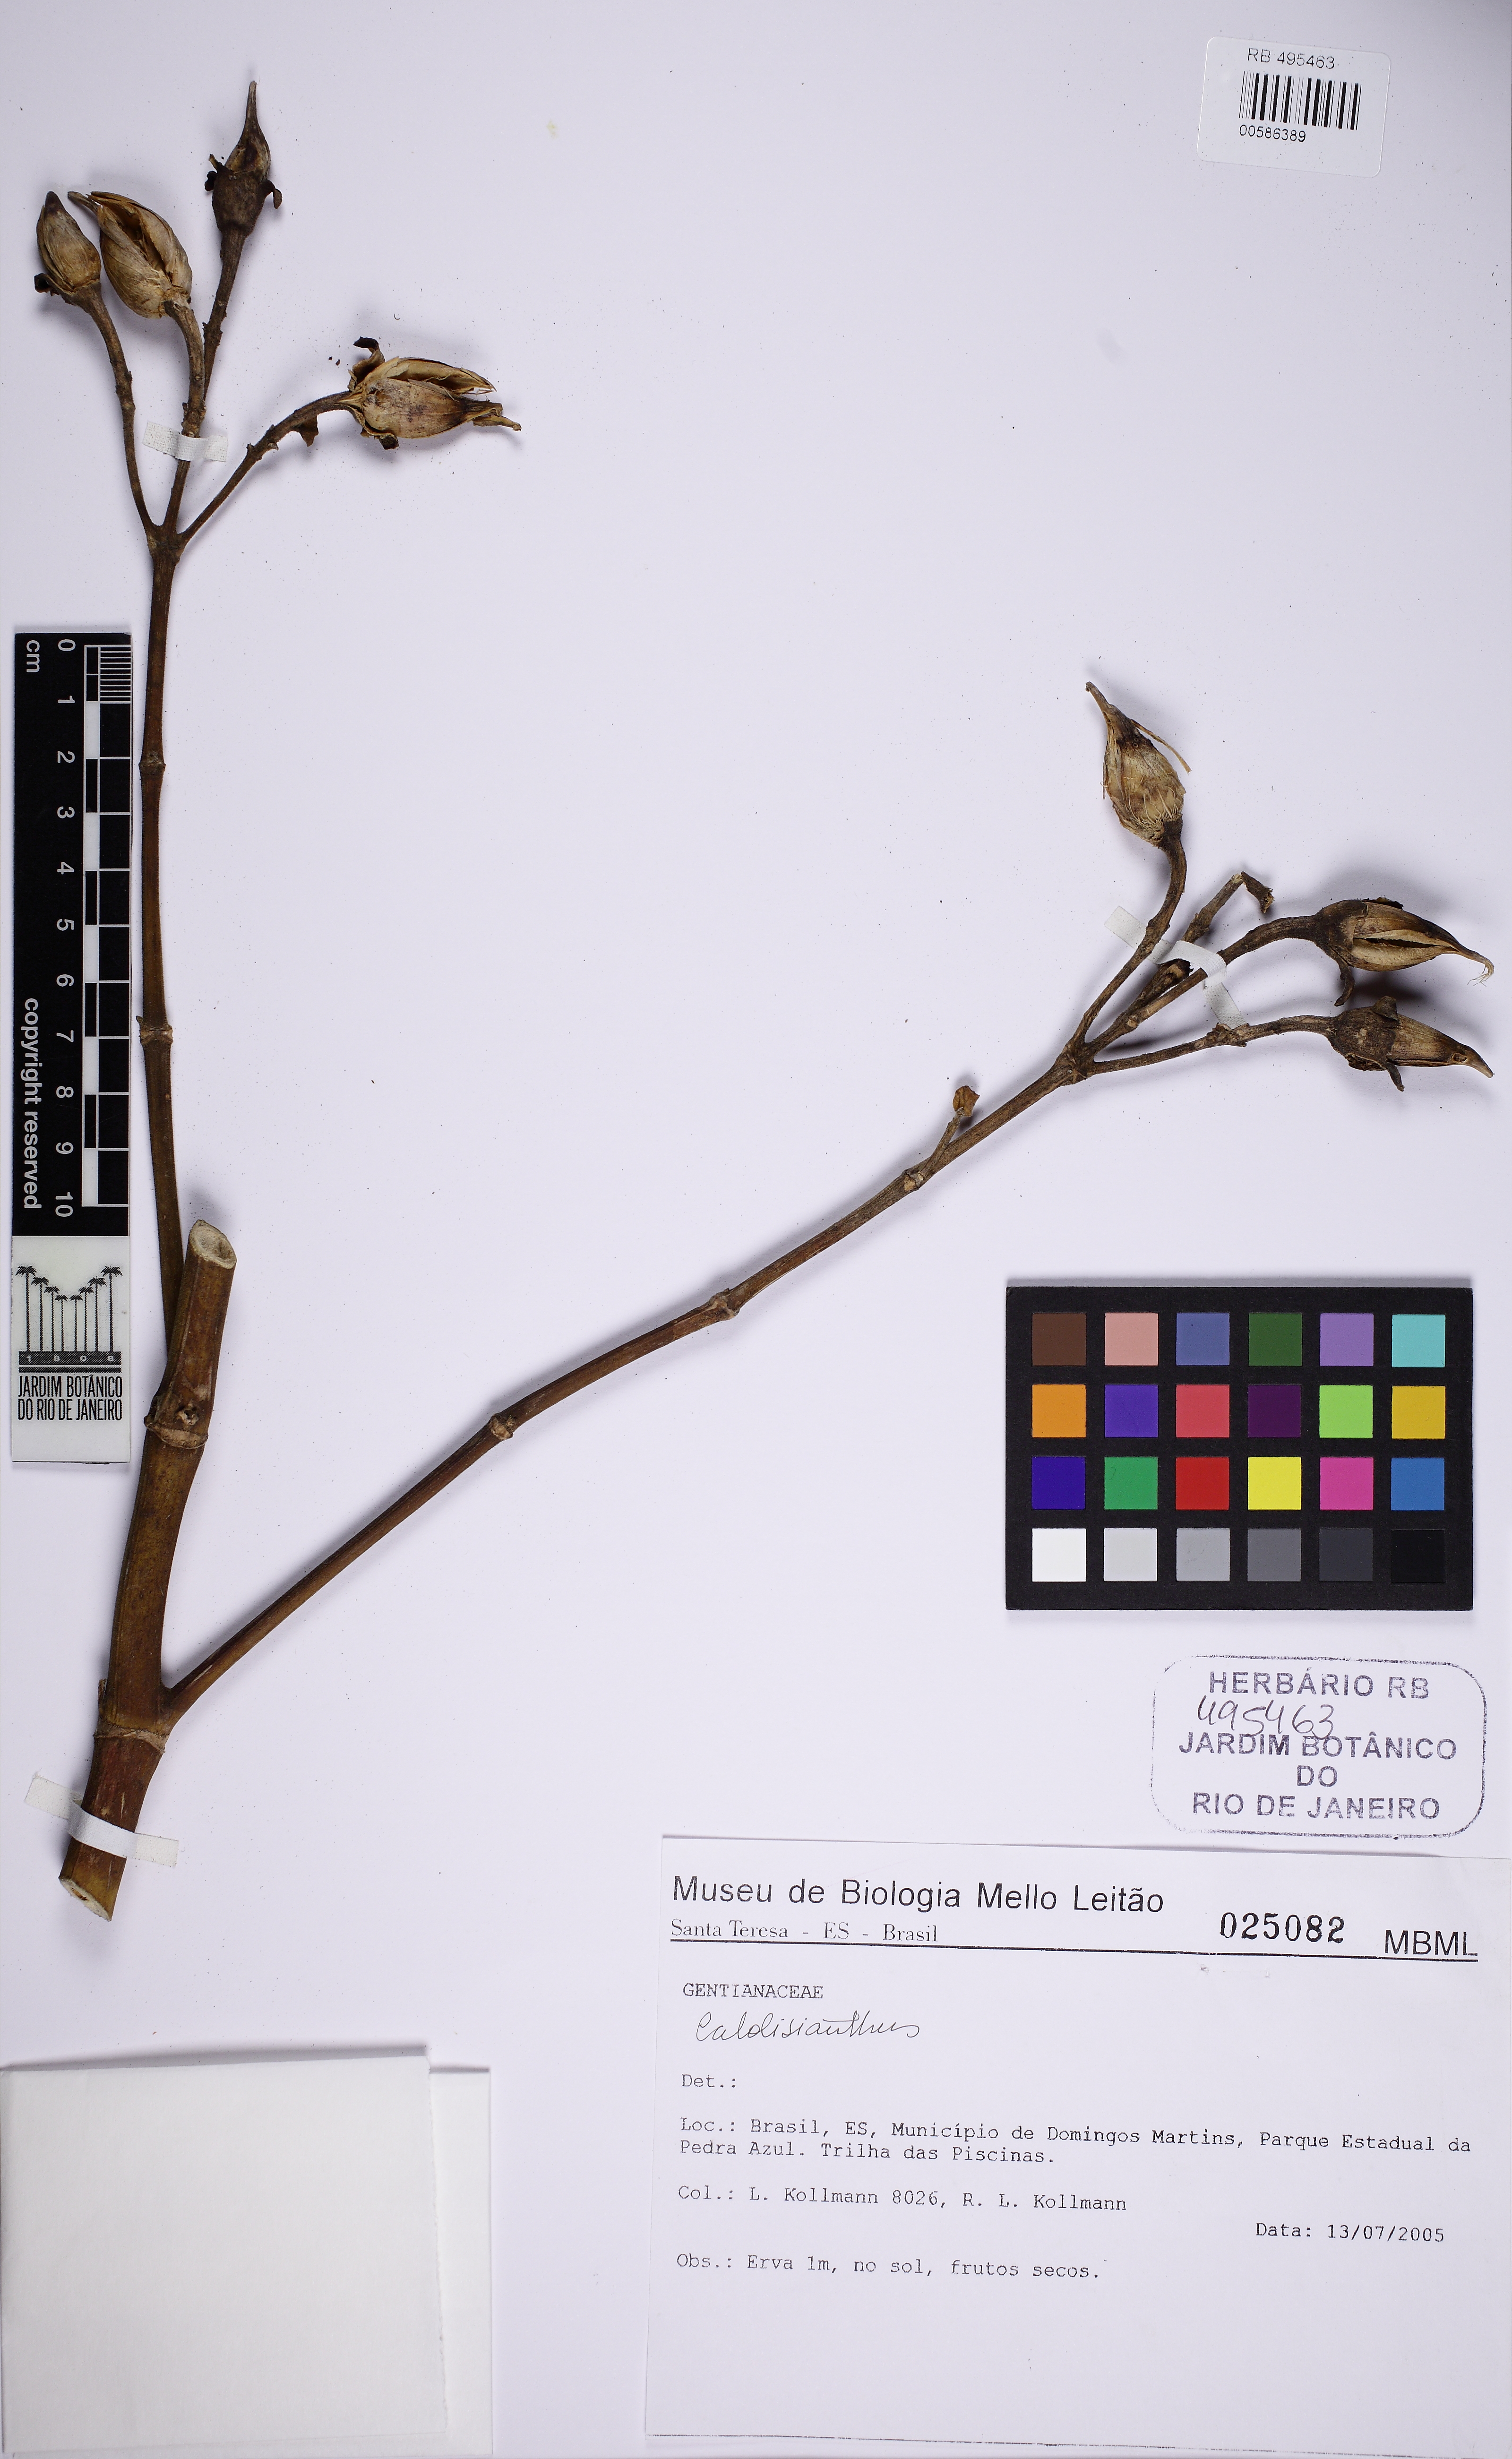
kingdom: Plantae
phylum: Tracheophyta
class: Magnoliopsida
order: Gentianales
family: Gentianaceae
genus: Calolisianthus
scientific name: Calolisianthus
